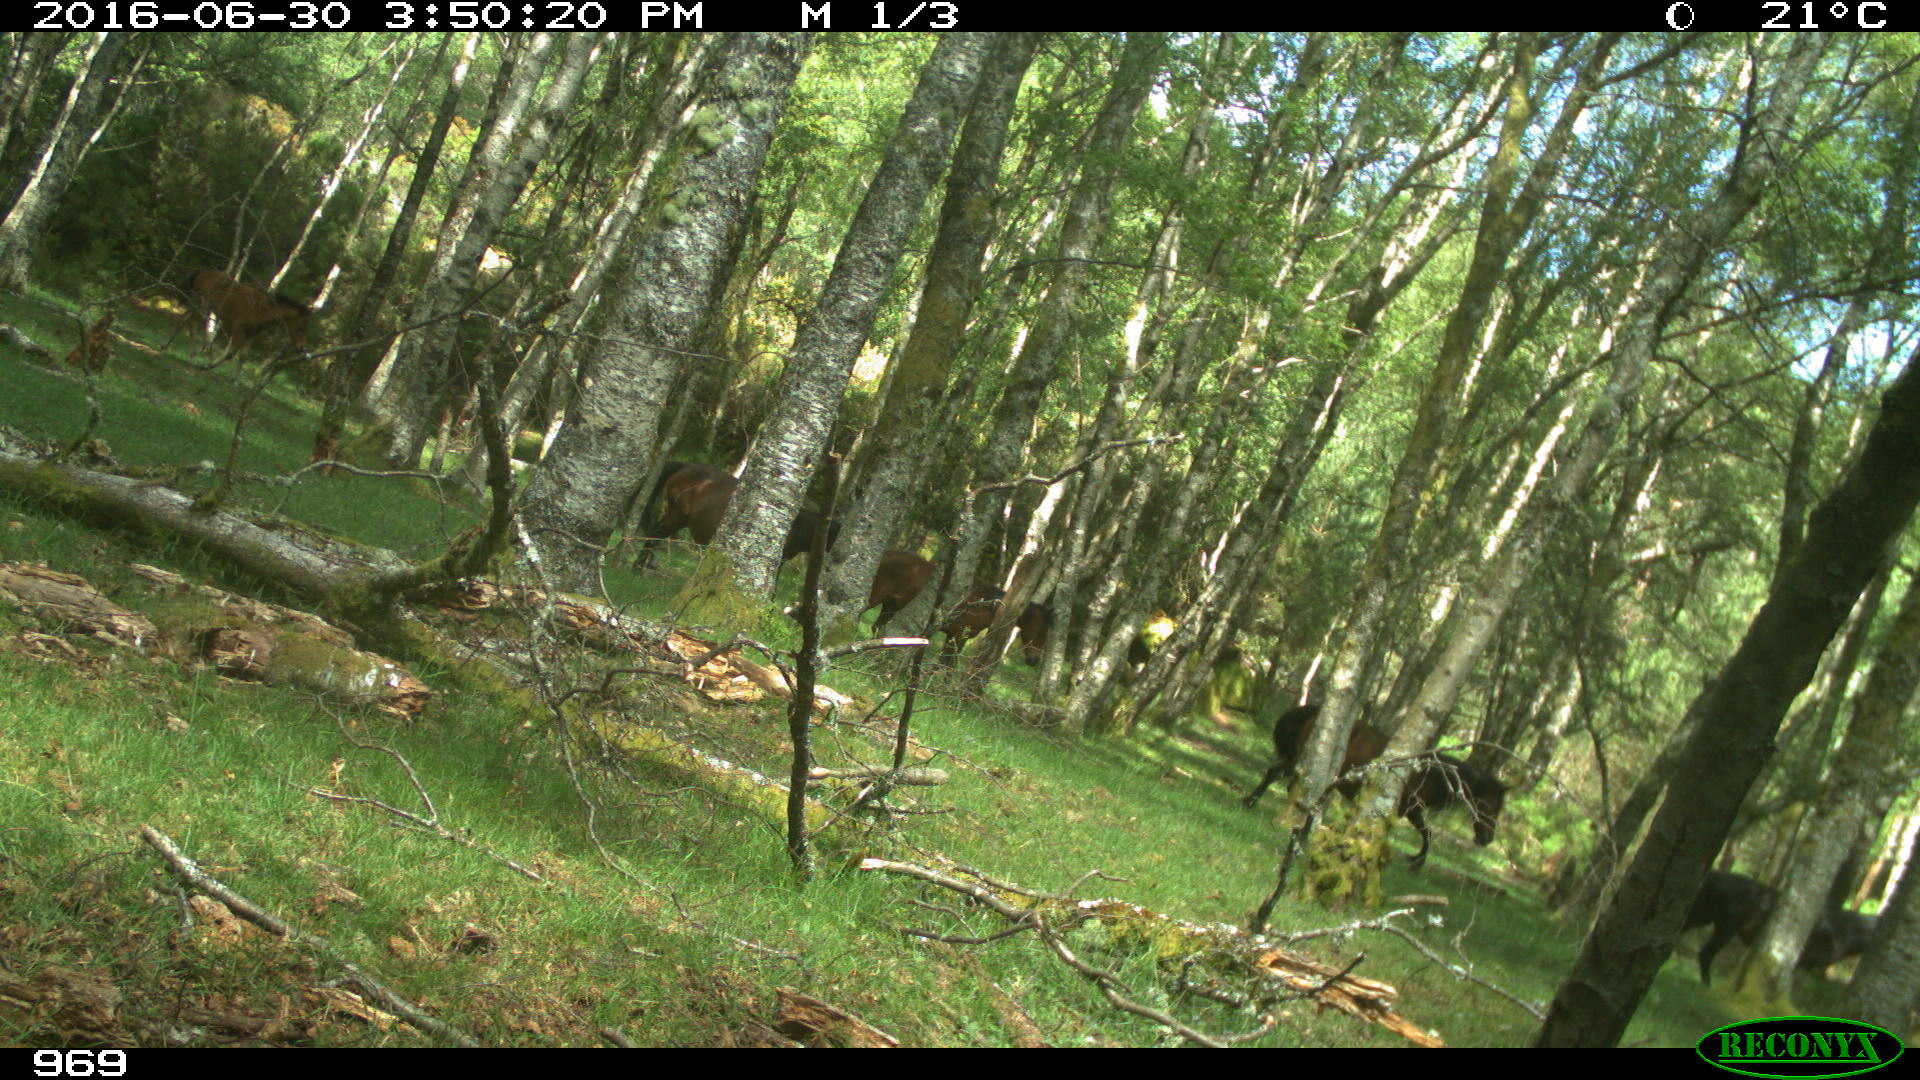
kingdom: Animalia
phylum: Chordata
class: Mammalia
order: Perissodactyla
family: Equidae
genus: Equus
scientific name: Equus caballus
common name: Horse
